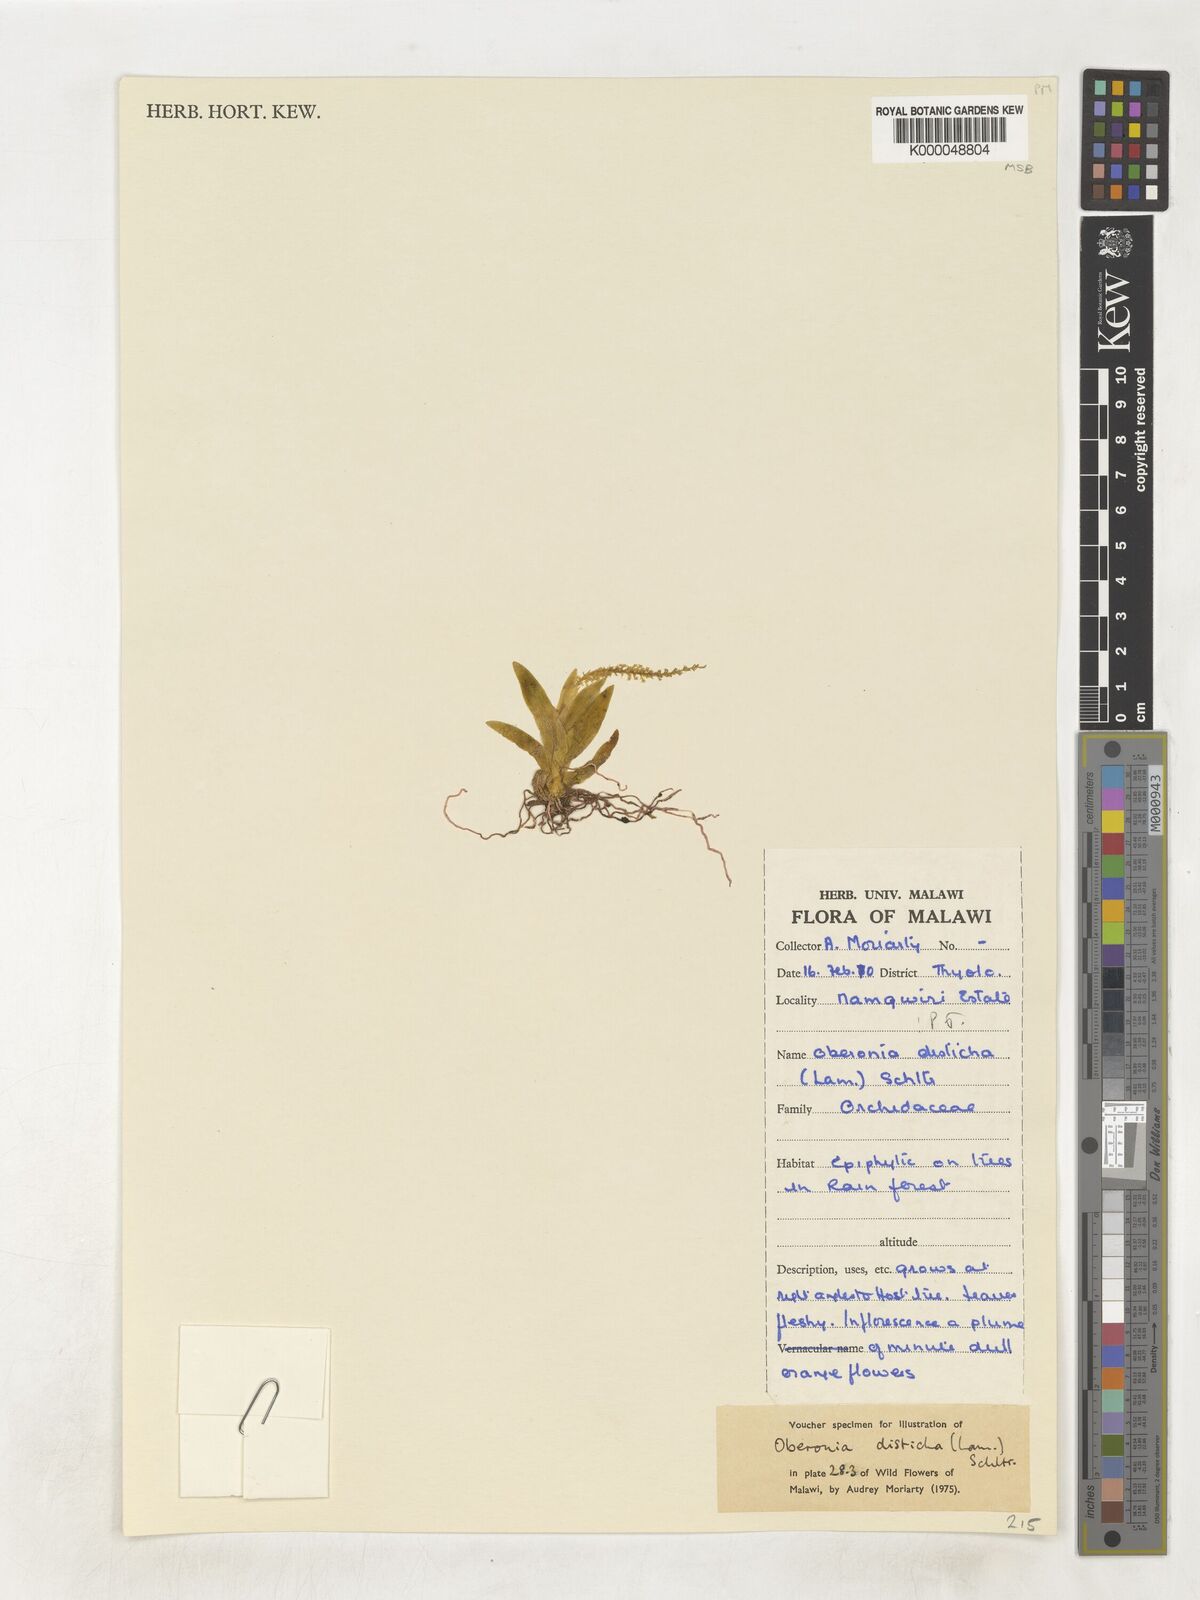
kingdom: Plantae
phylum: Tracheophyta
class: Liliopsida
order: Asparagales
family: Orchidaceae
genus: Oberonia
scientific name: Oberonia disticha
